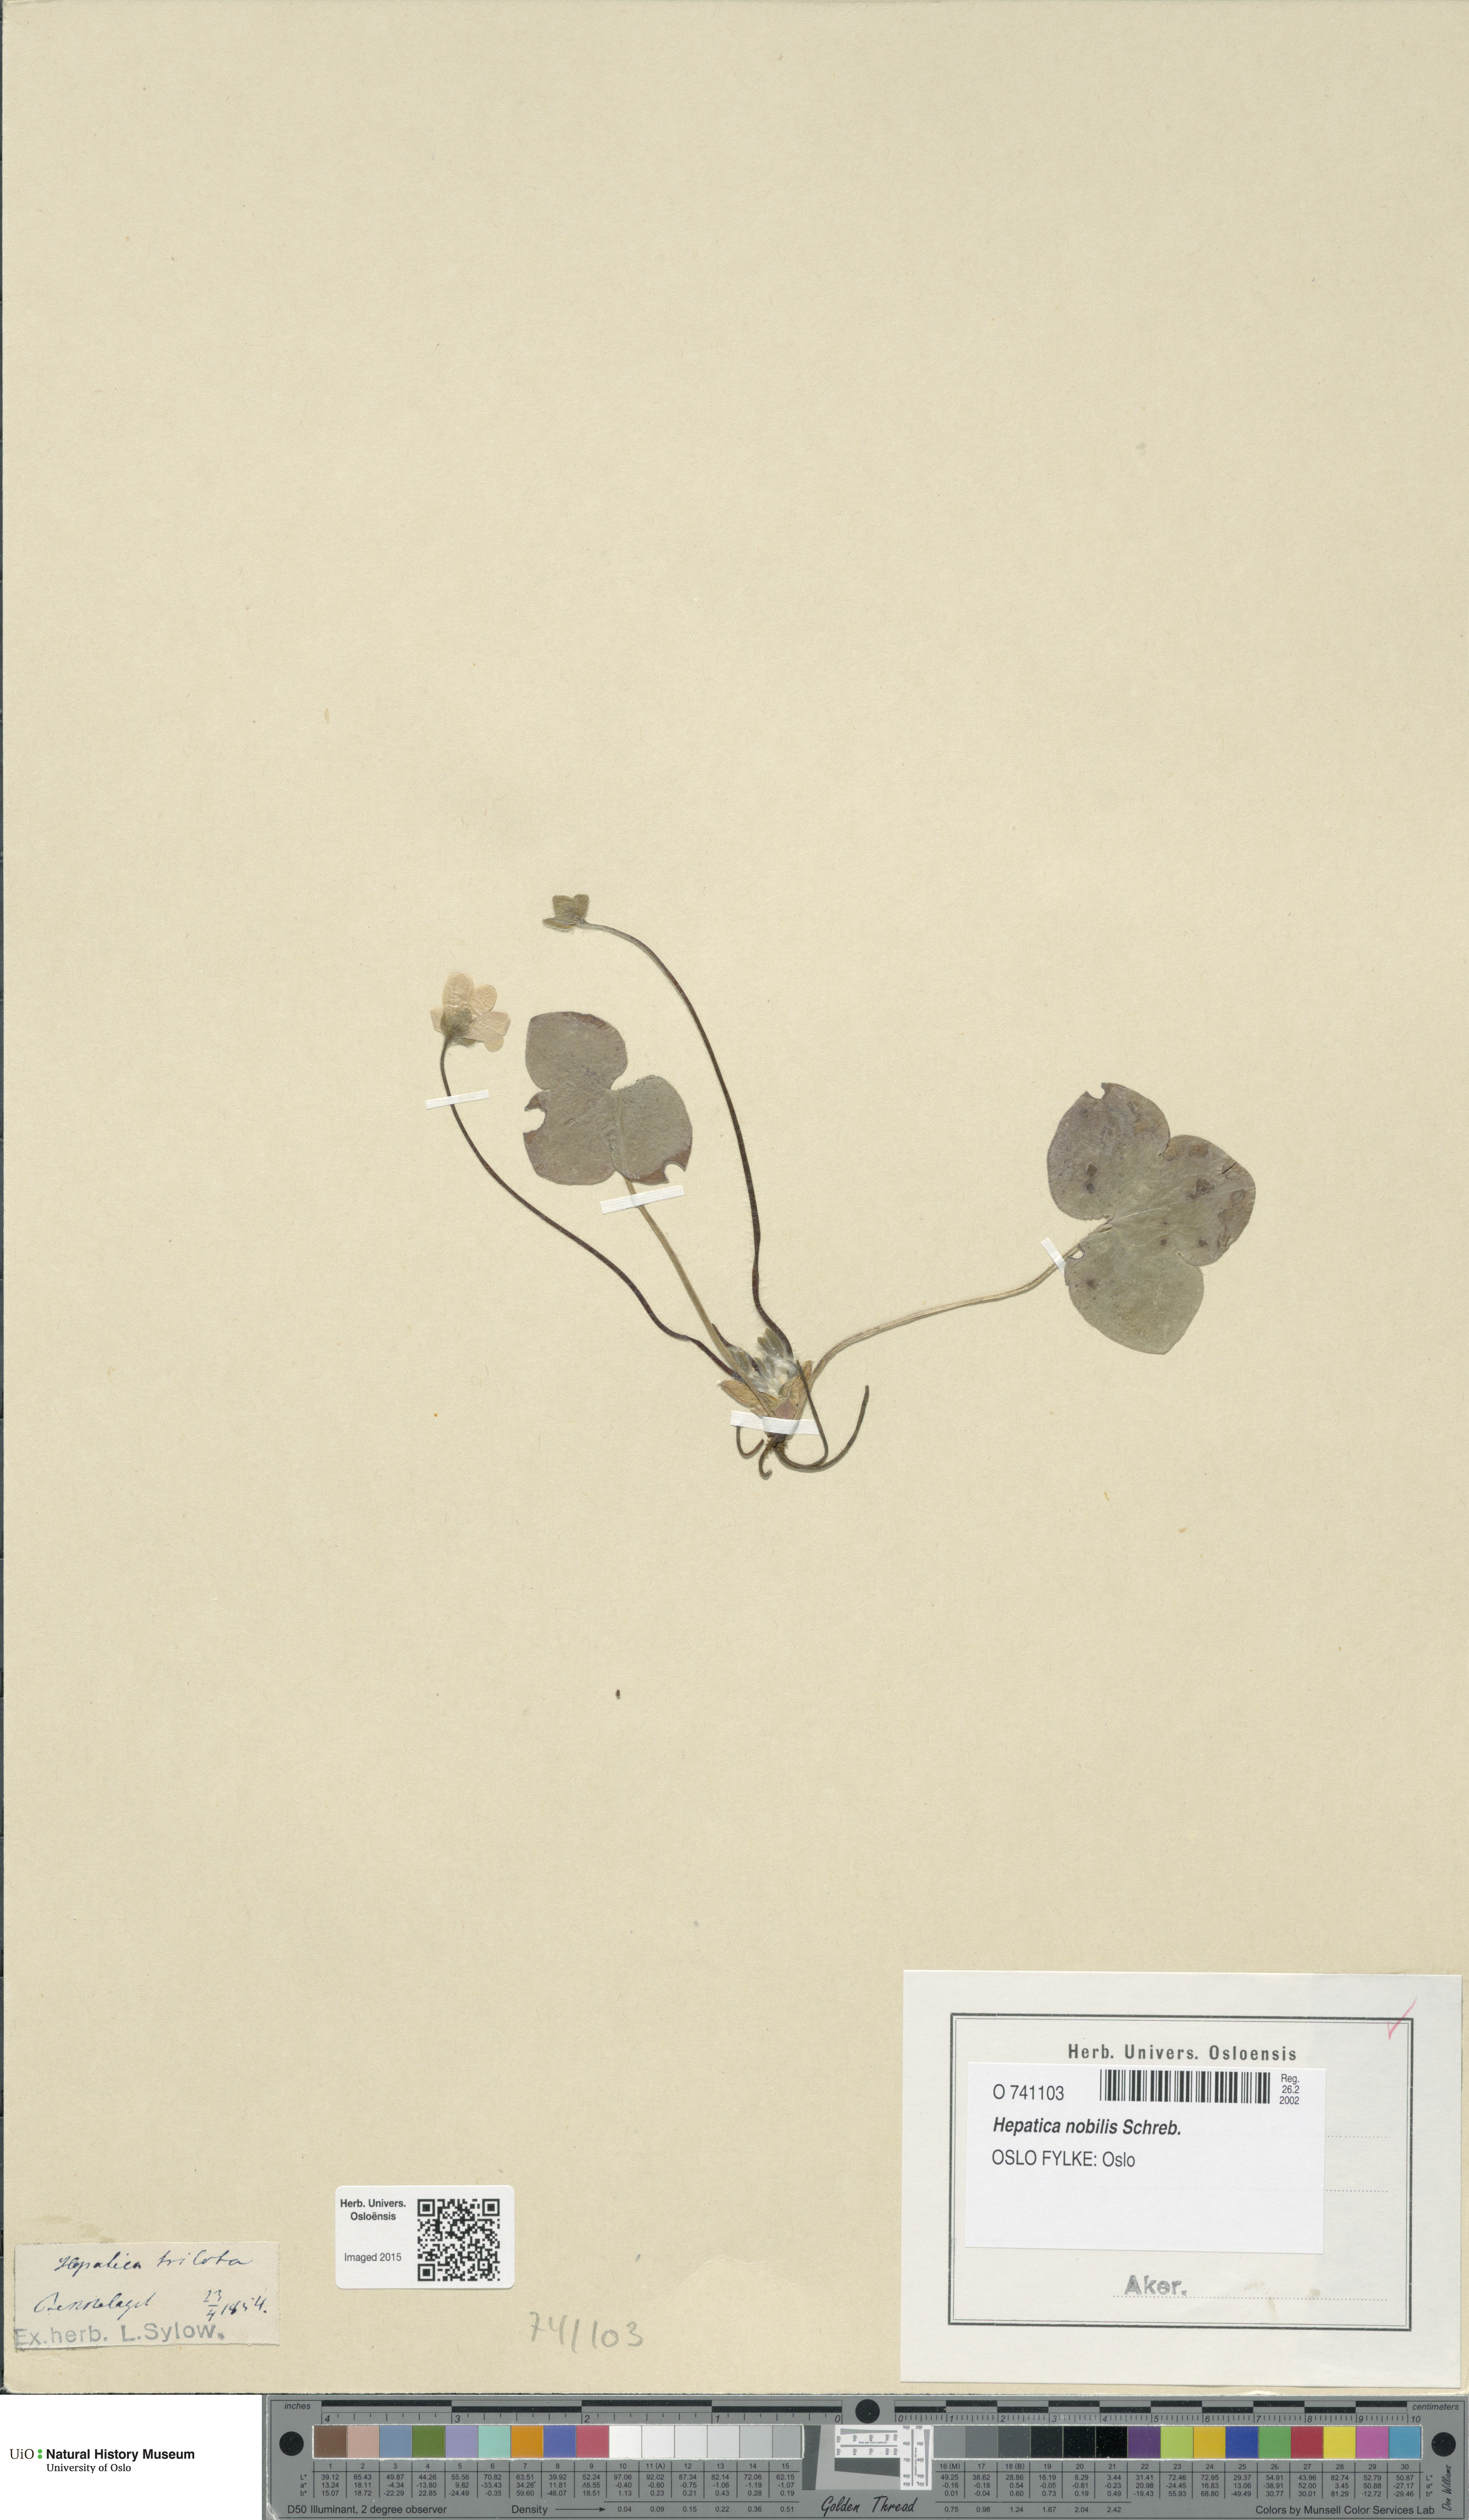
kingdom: Plantae
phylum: Tracheophyta
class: Magnoliopsida
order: Ranunculales
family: Ranunculaceae
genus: Hepatica
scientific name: Hepatica nobilis
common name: Liverleaf
